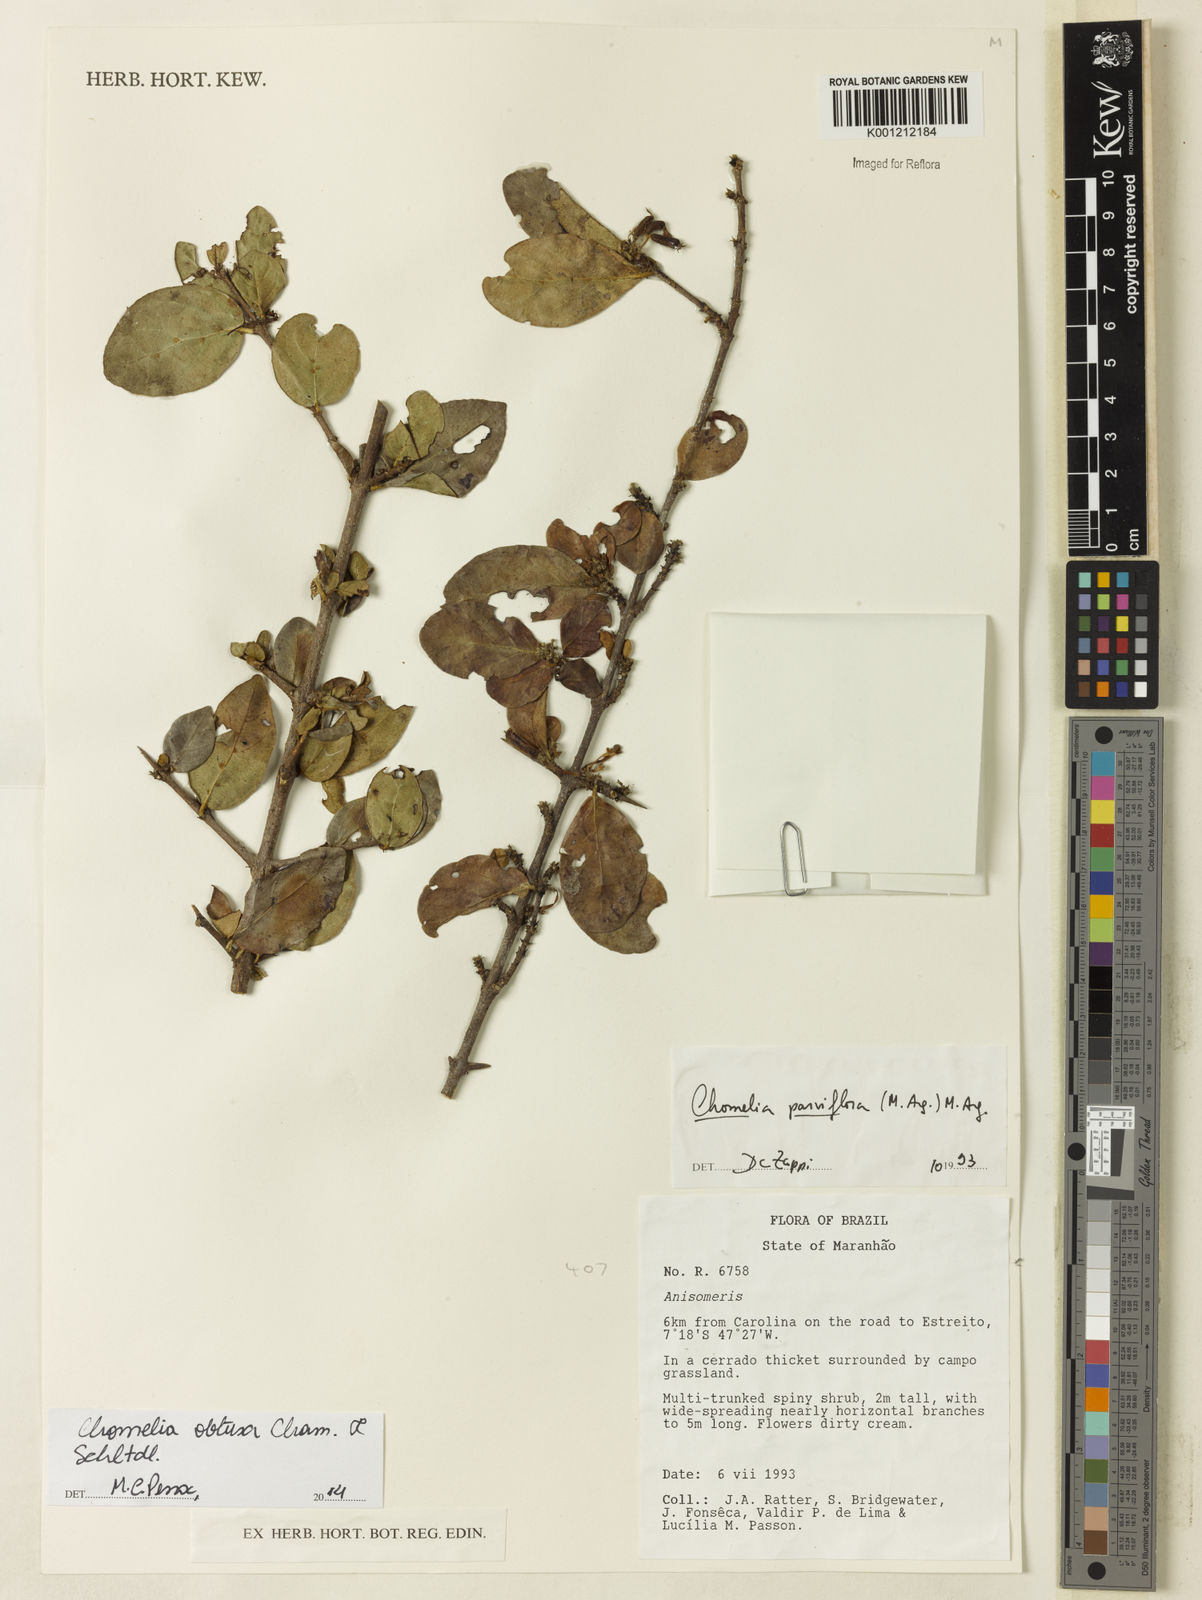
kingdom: Plantae
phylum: Tracheophyta
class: Magnoliopsida
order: Gentianales
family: Rubiaceae
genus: Chomelia
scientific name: Chomelia obtusa
